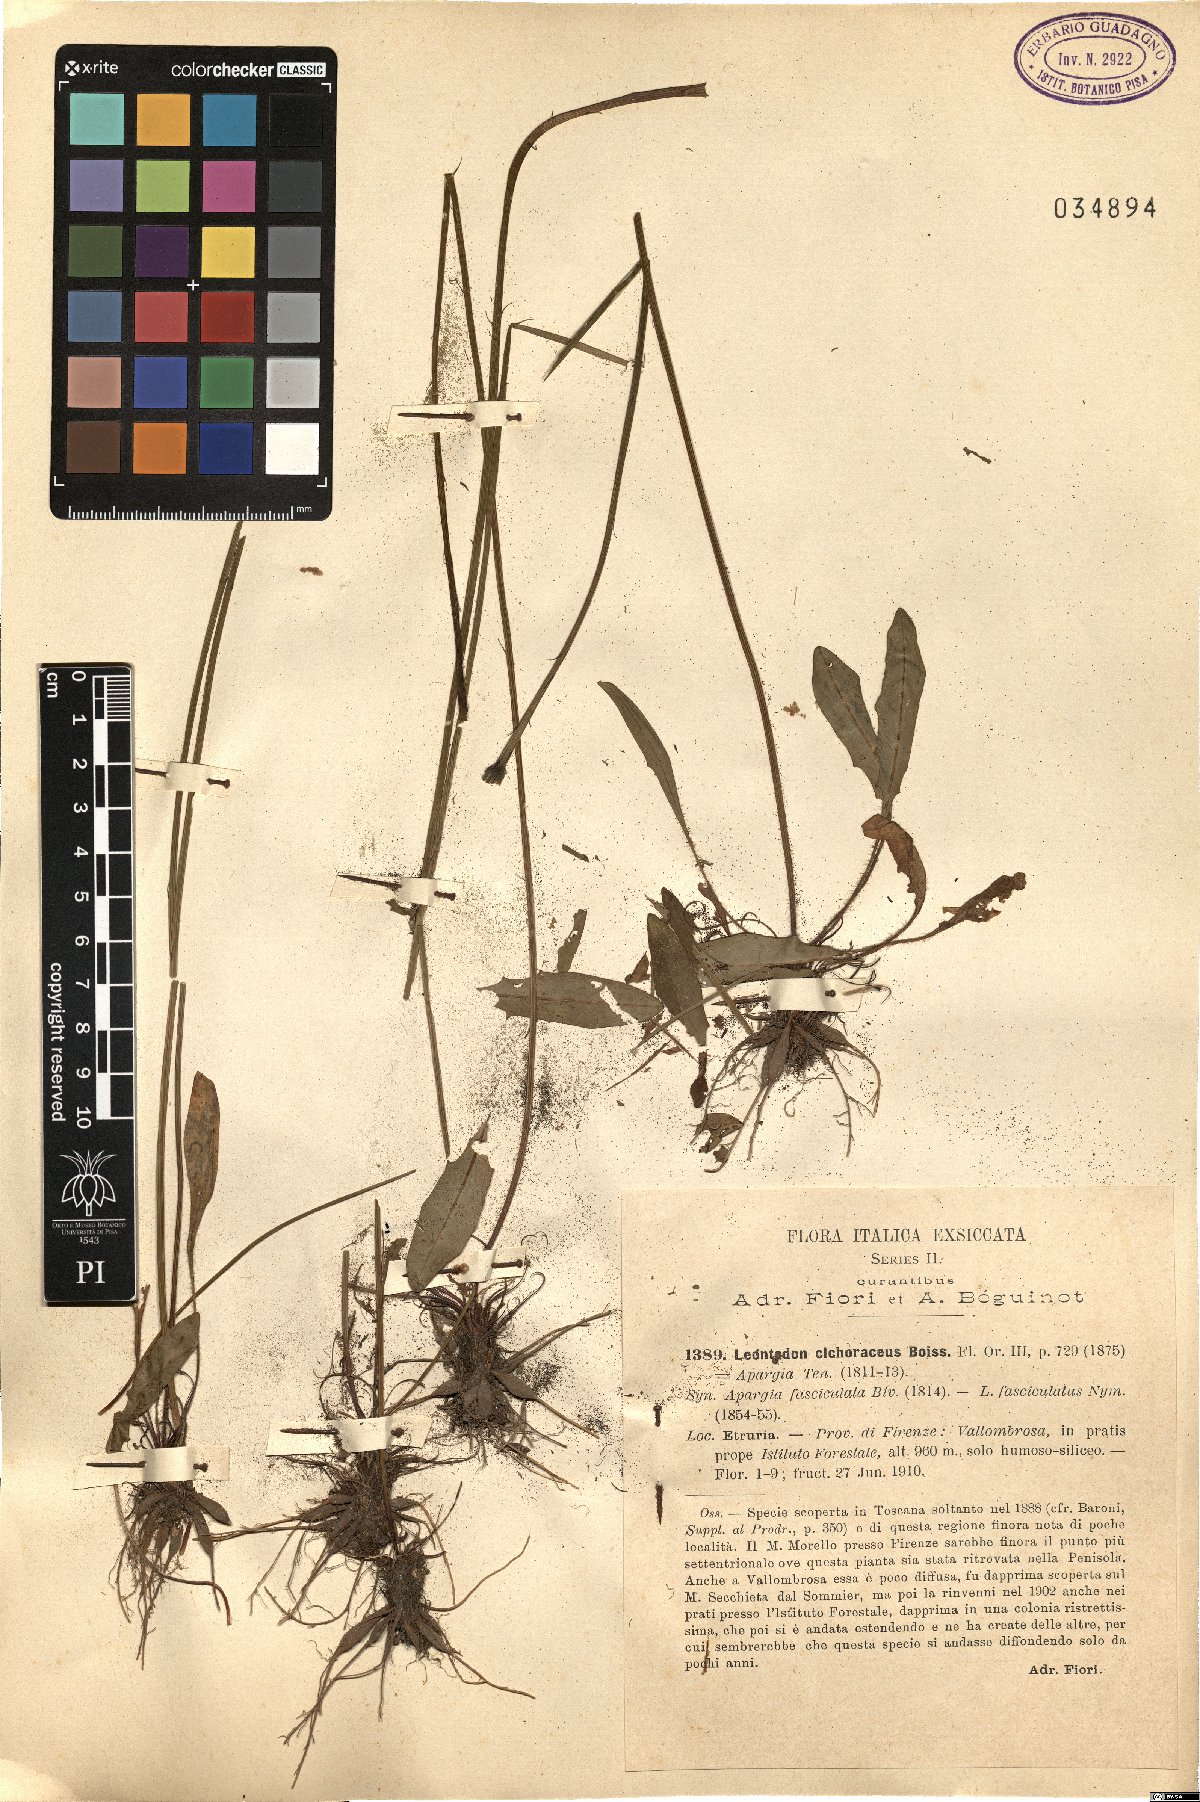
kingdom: Plantae
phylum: Tracheophyta
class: Magnoliopsida
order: Asterales
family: Asteraceae
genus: Scorzoneroides
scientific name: Scorzoneroides cichoriacea
